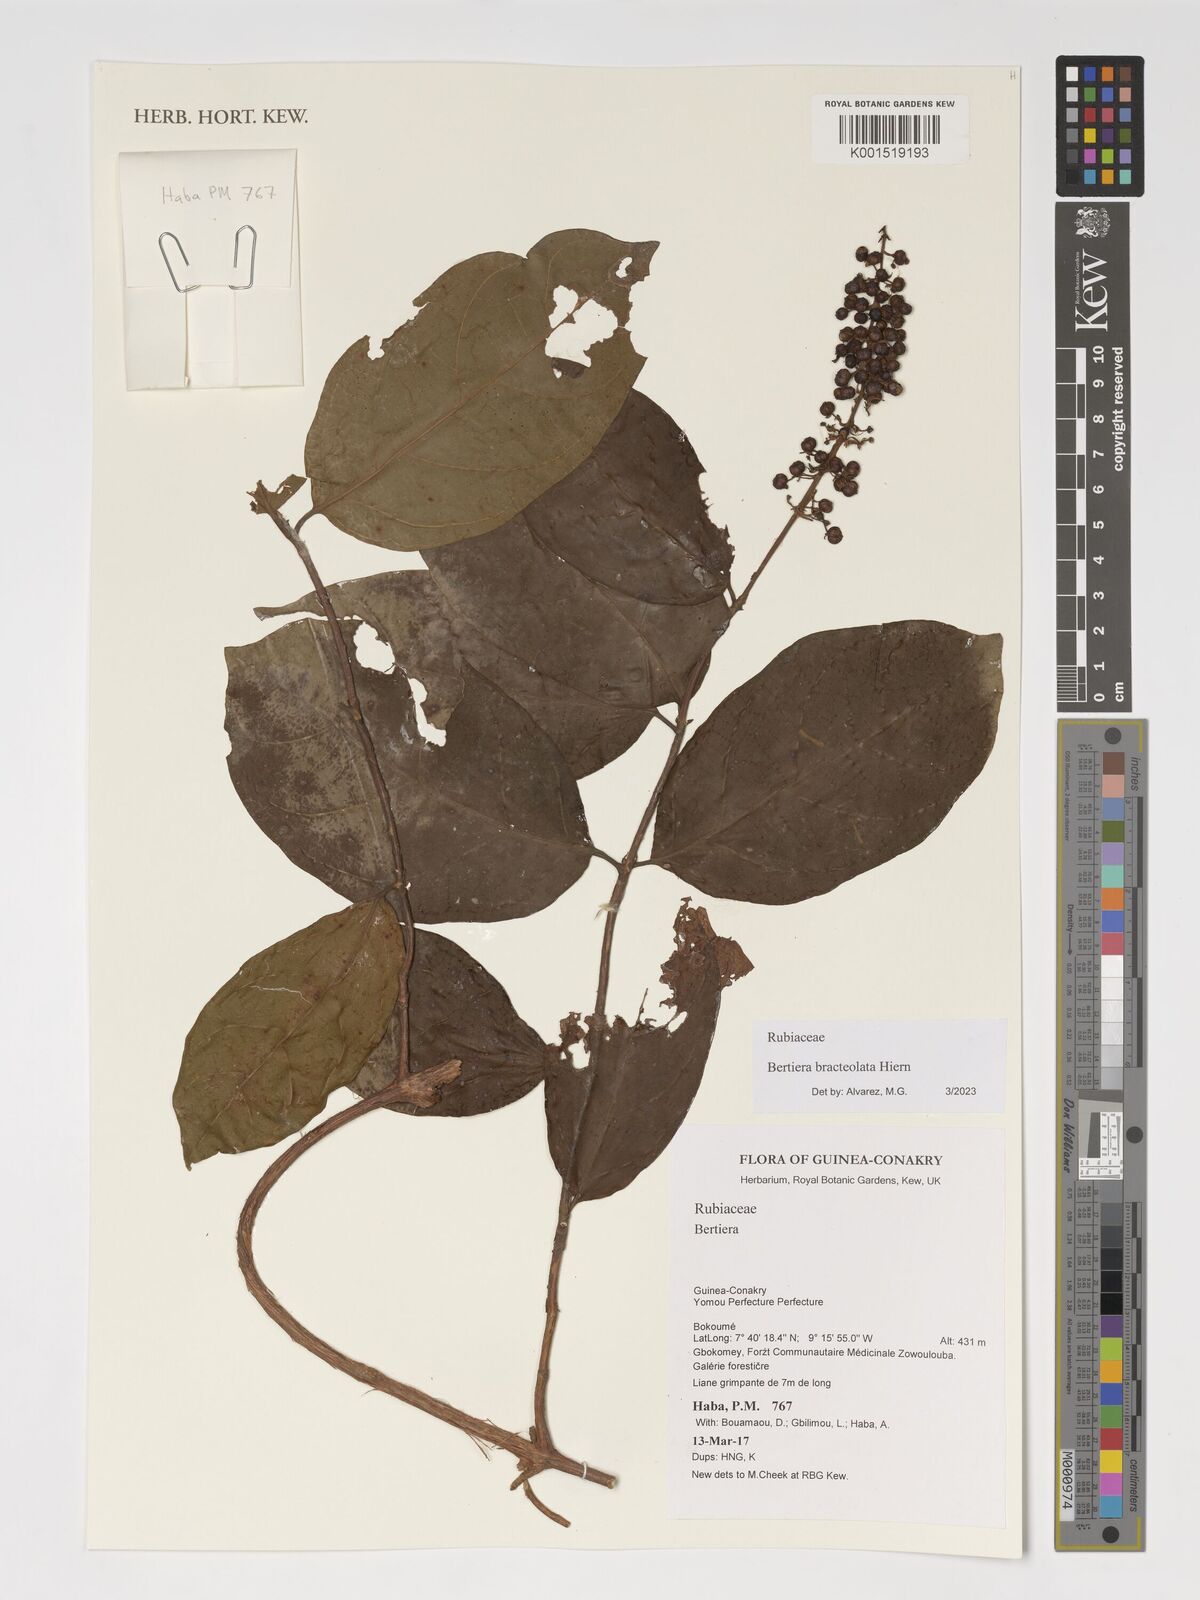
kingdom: Plantae
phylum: Tracheophyta
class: Magnoliopsida
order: Gentianales
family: Rubiaceae
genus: Bertiera
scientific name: Bertiera bracteolata
